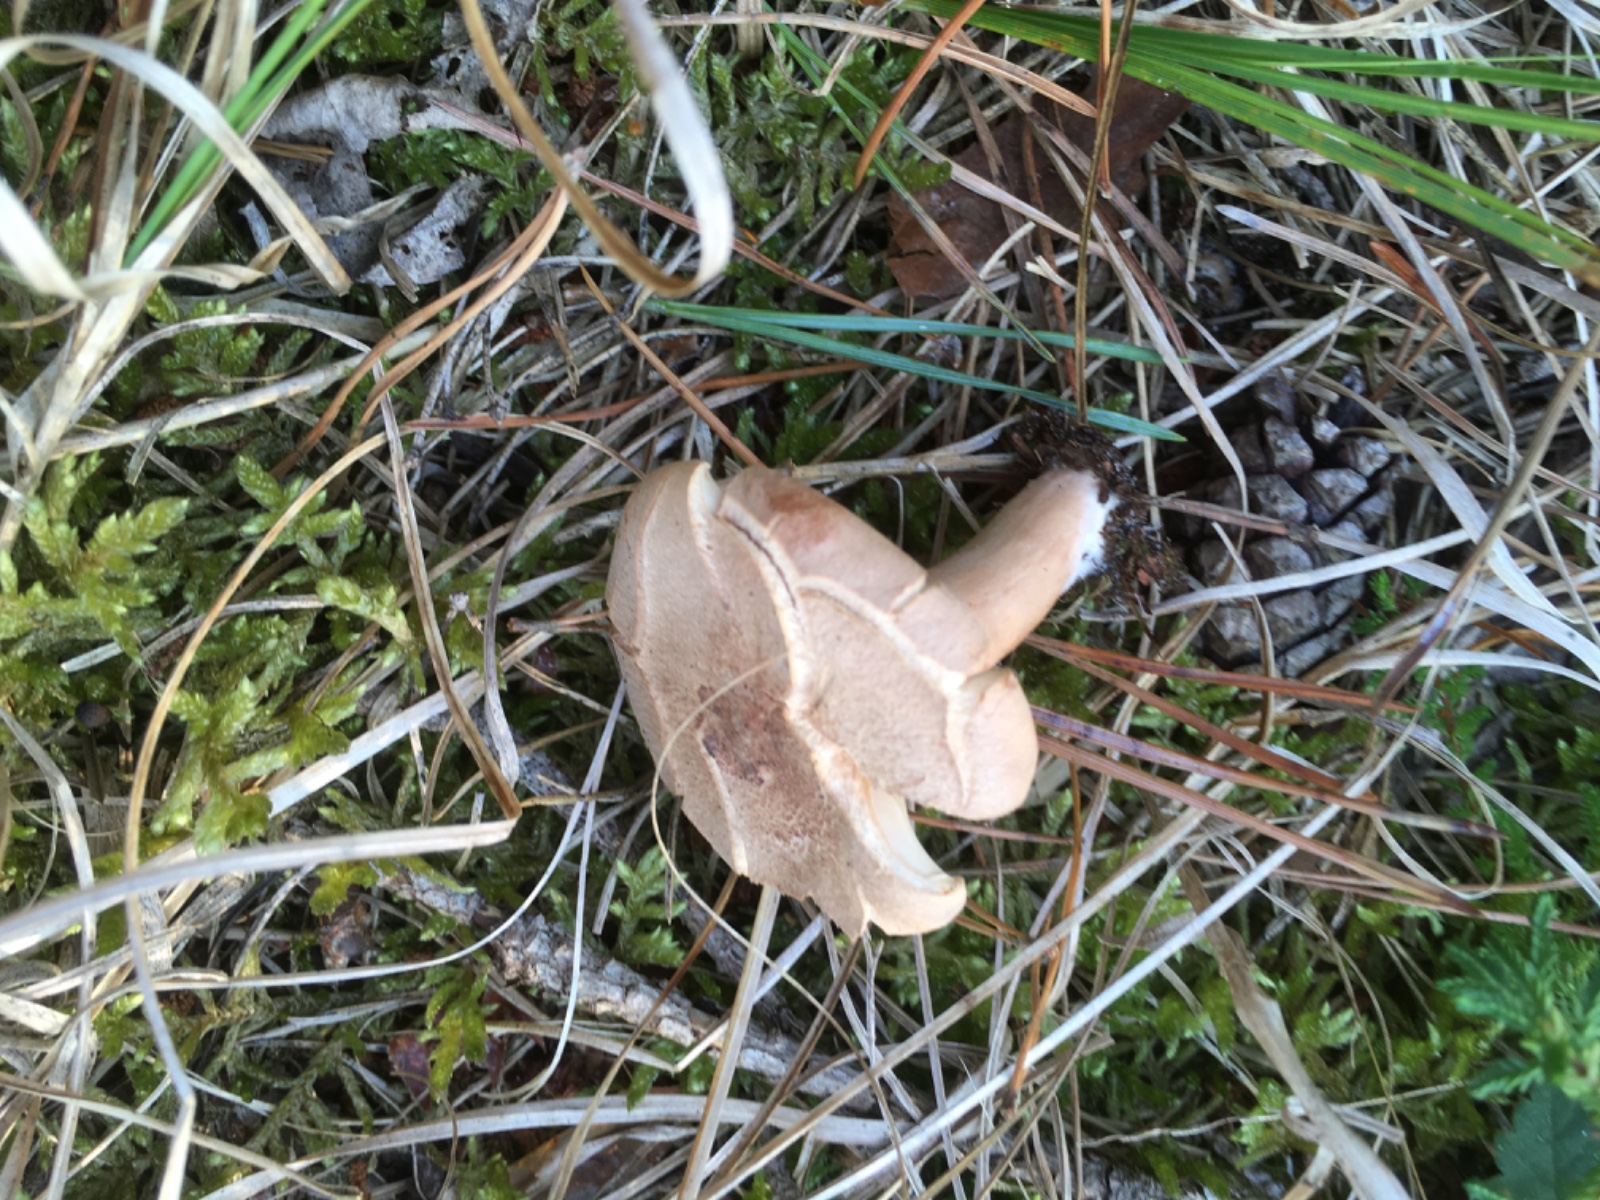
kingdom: Fungi
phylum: Basidiomycota
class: Agaricomycetes
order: Russulales
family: Russulaceae
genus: Lactarius
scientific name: Lactarius helvus
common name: mose-mælkehat
